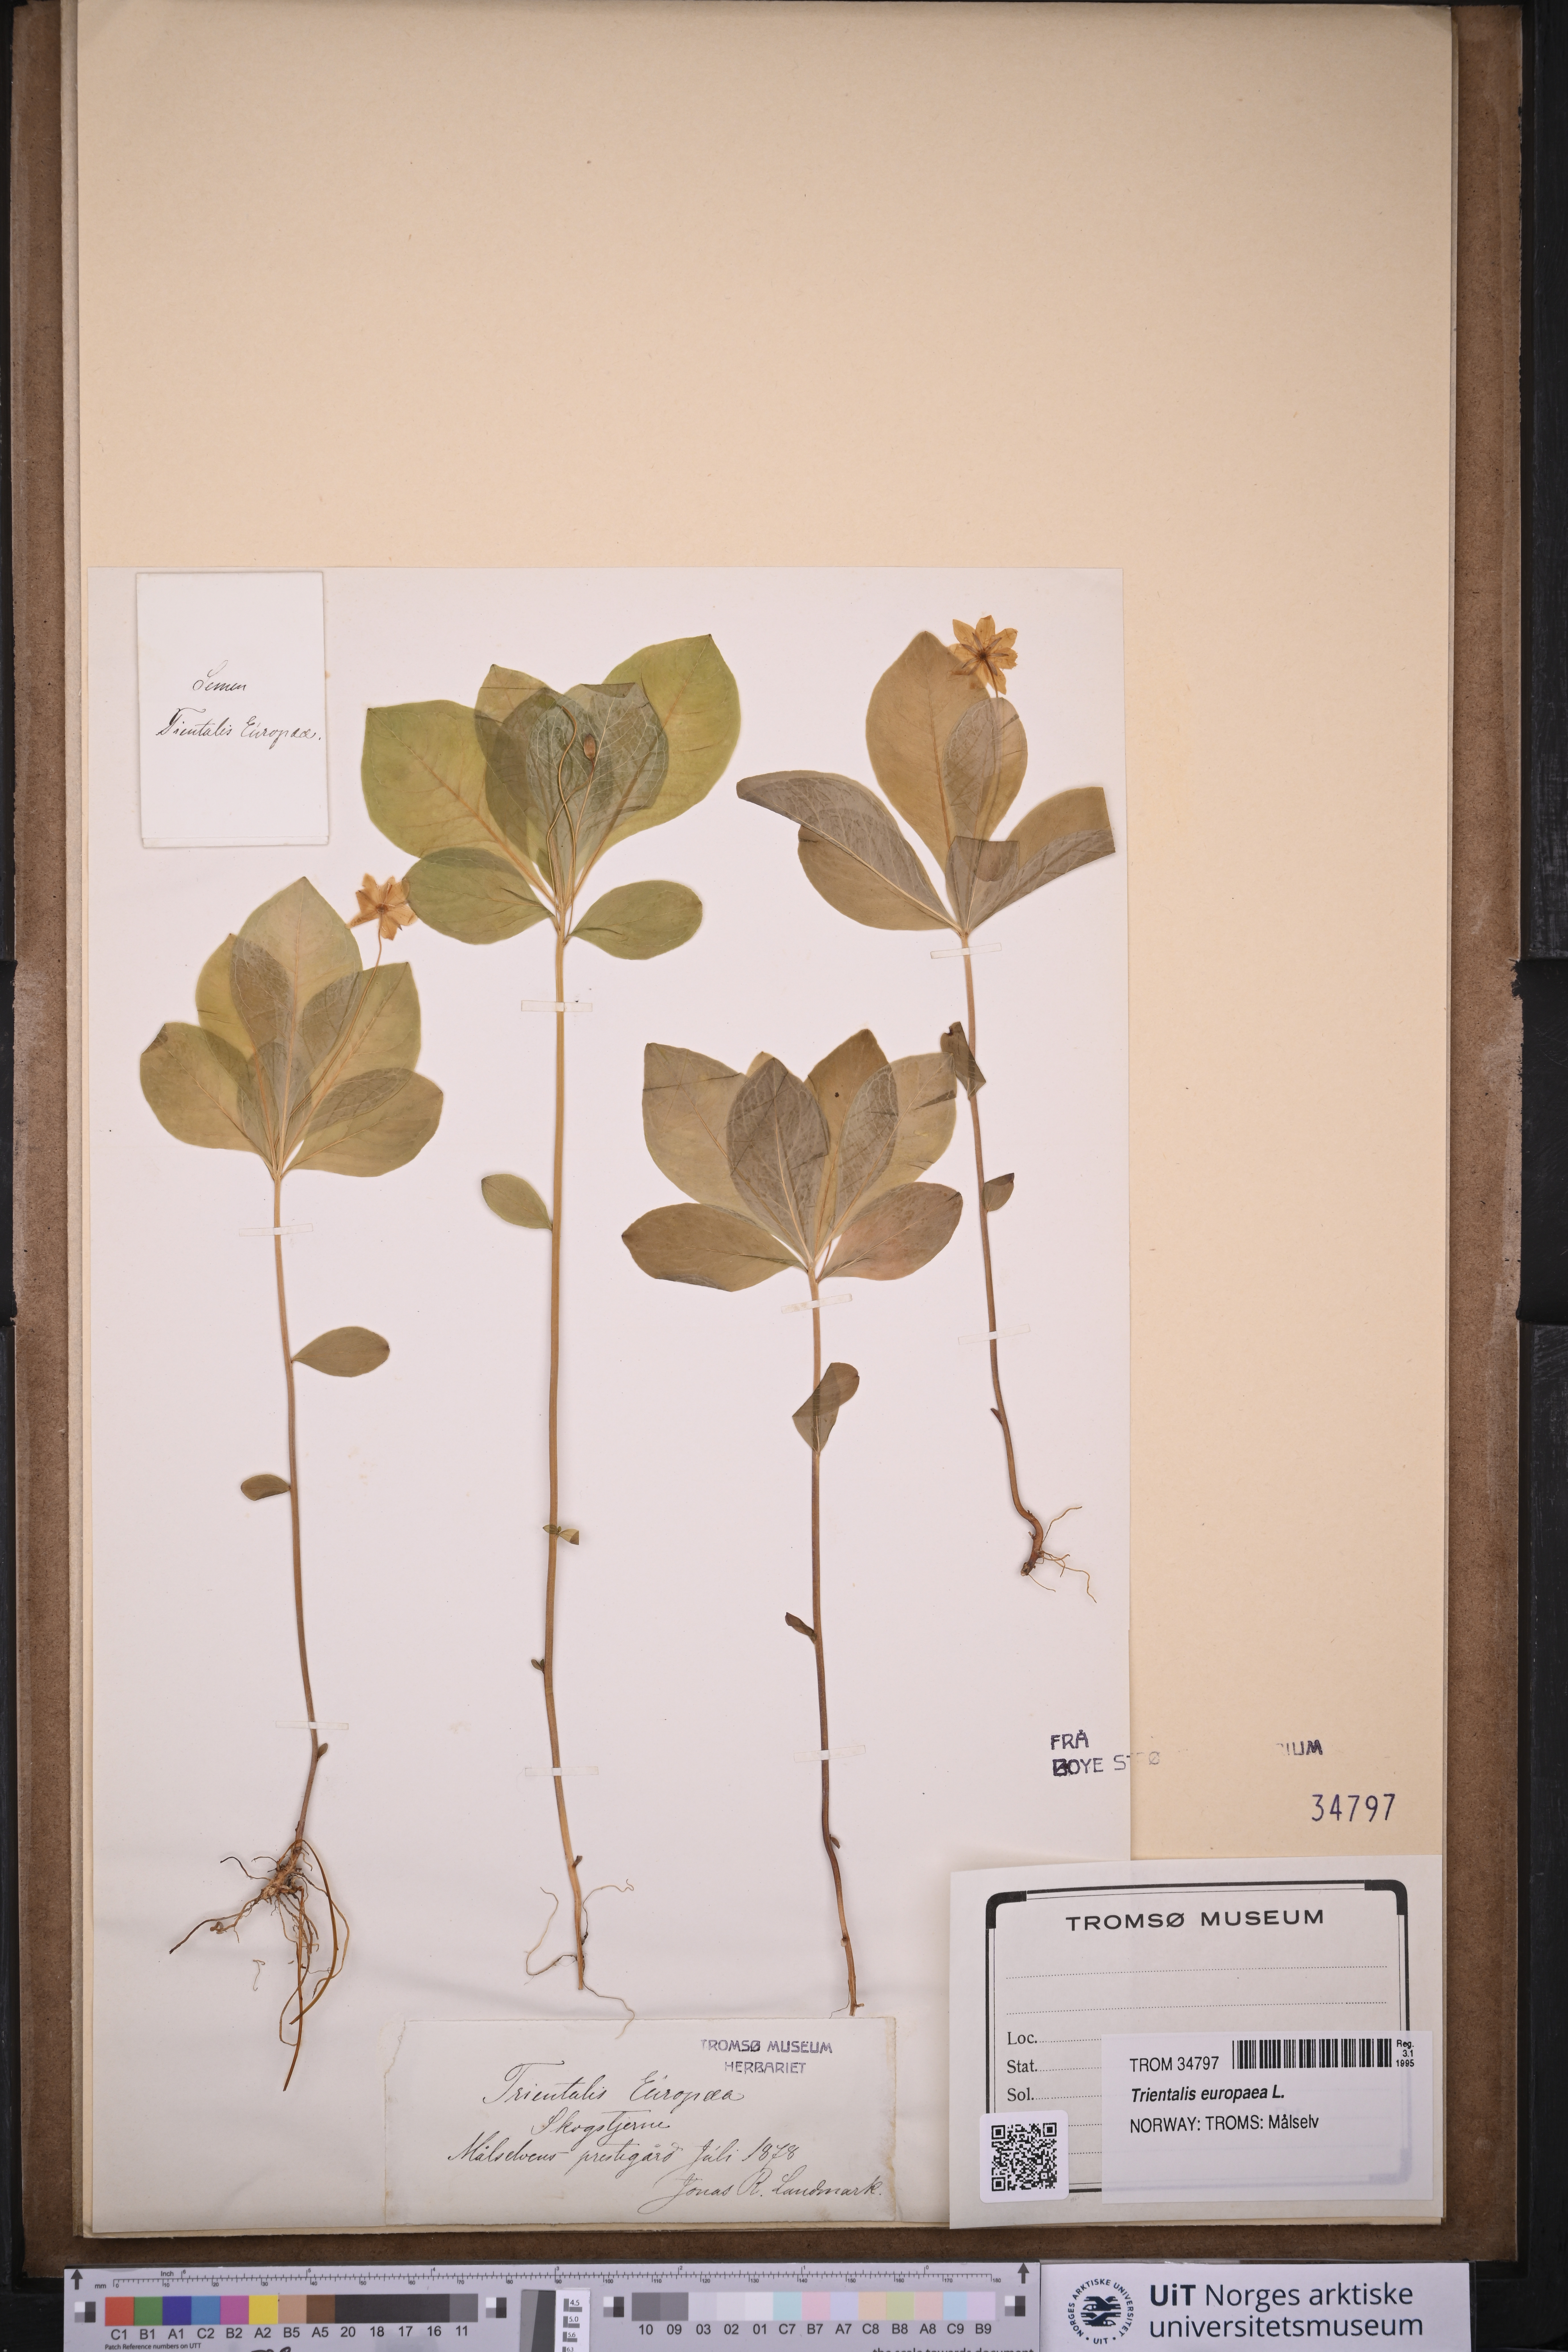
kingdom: Plantae
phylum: Tracheophyta
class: Magnoliopsida
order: Ericales
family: Primulaceae
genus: Lysimachia
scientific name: Lysimachia europaea
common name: Arctic starflower
